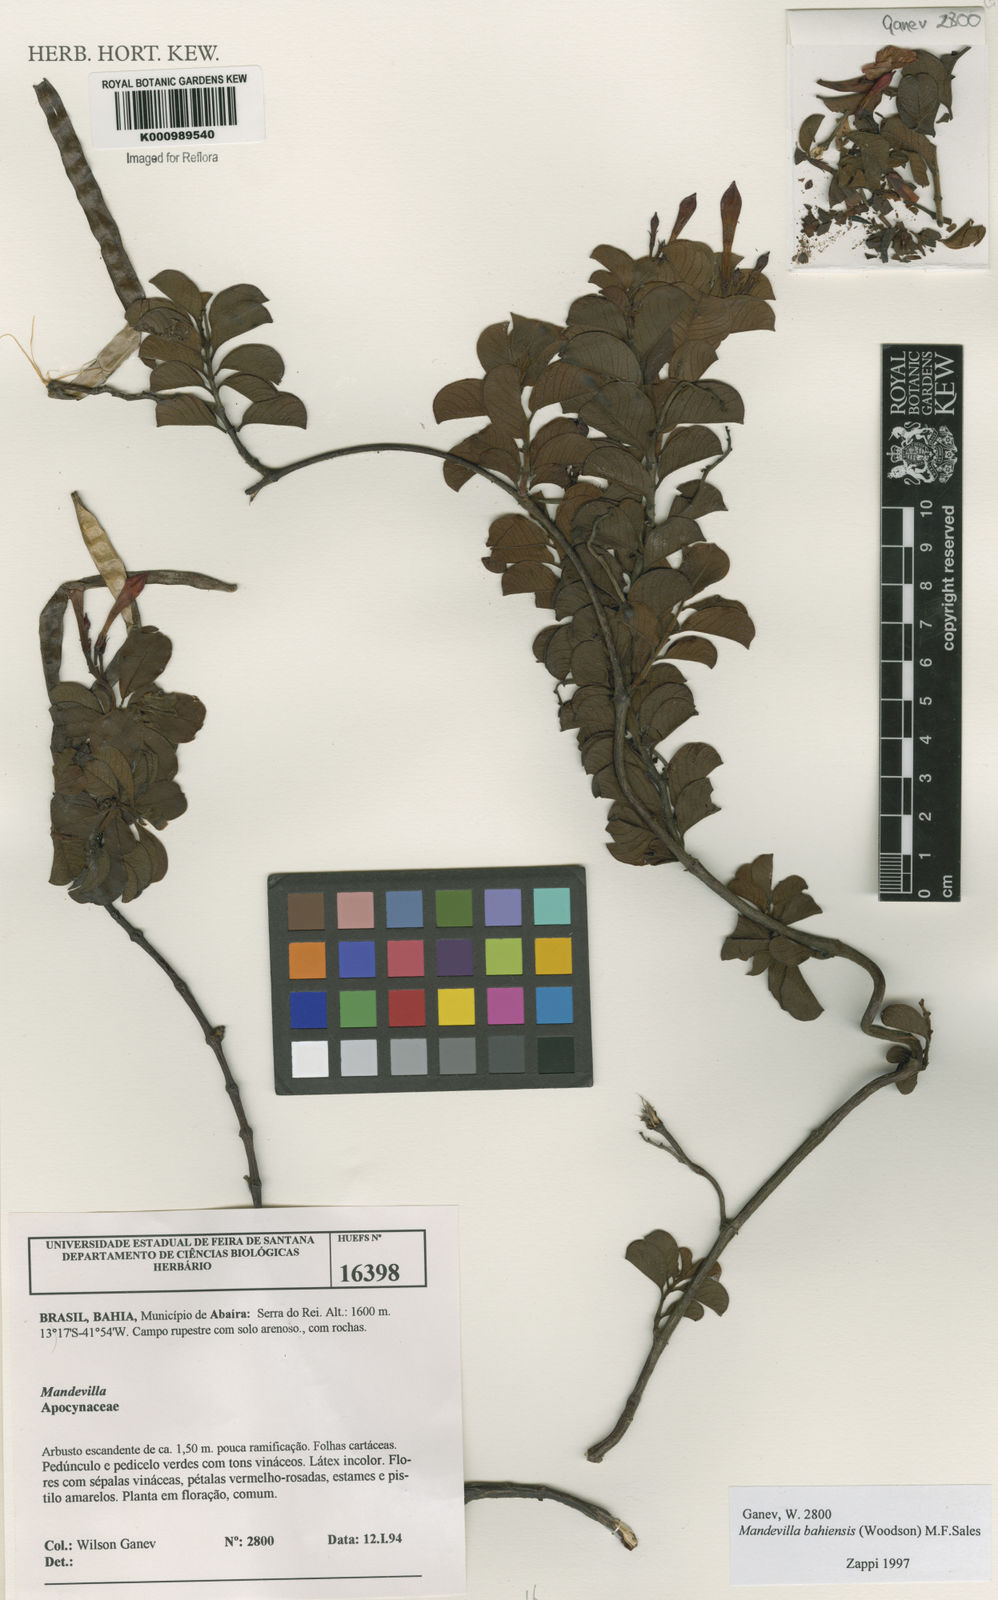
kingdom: Plantae
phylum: Tracheophyta
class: Magnoliopsida
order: Gentianales
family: Apocynaceae
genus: Mandevilla
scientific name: Mandevilla bahiensis
